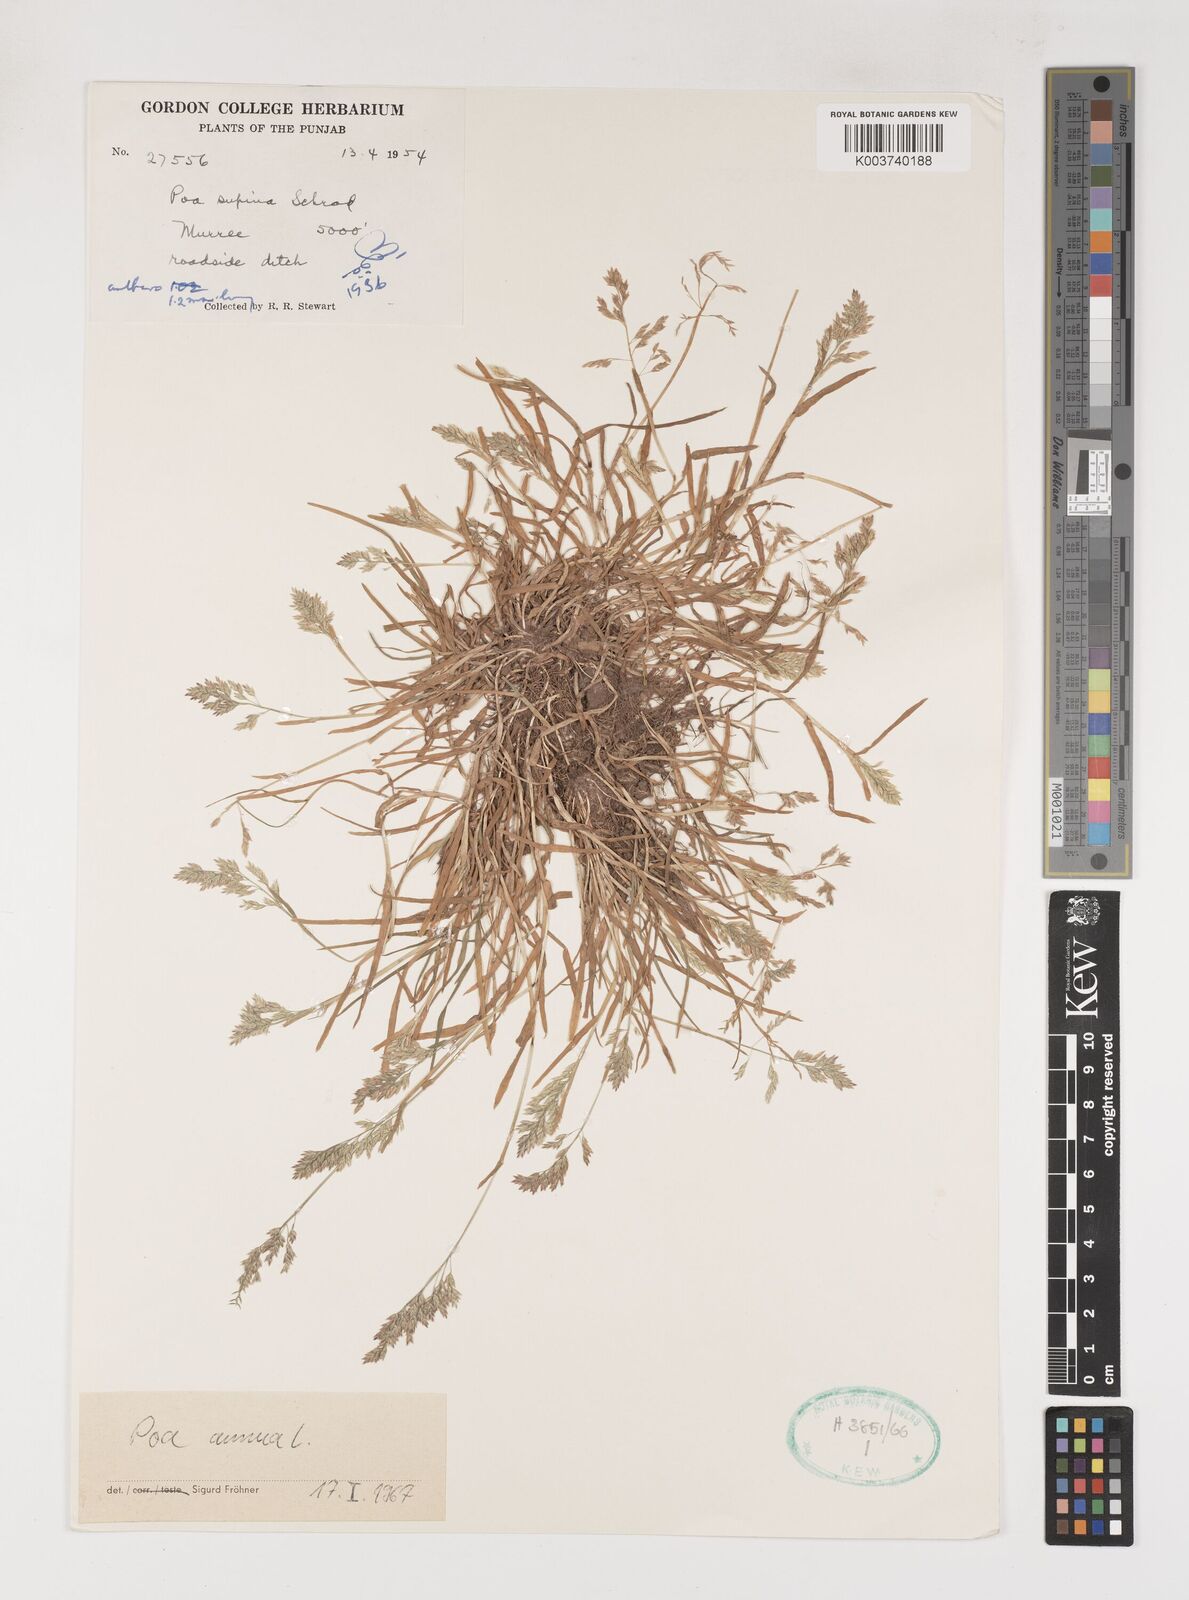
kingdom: Plantae
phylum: Tracheophyta
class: Liliopsida
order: Poales
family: Poaceae
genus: Poa
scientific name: Poa annua
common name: Annual bluegrass
